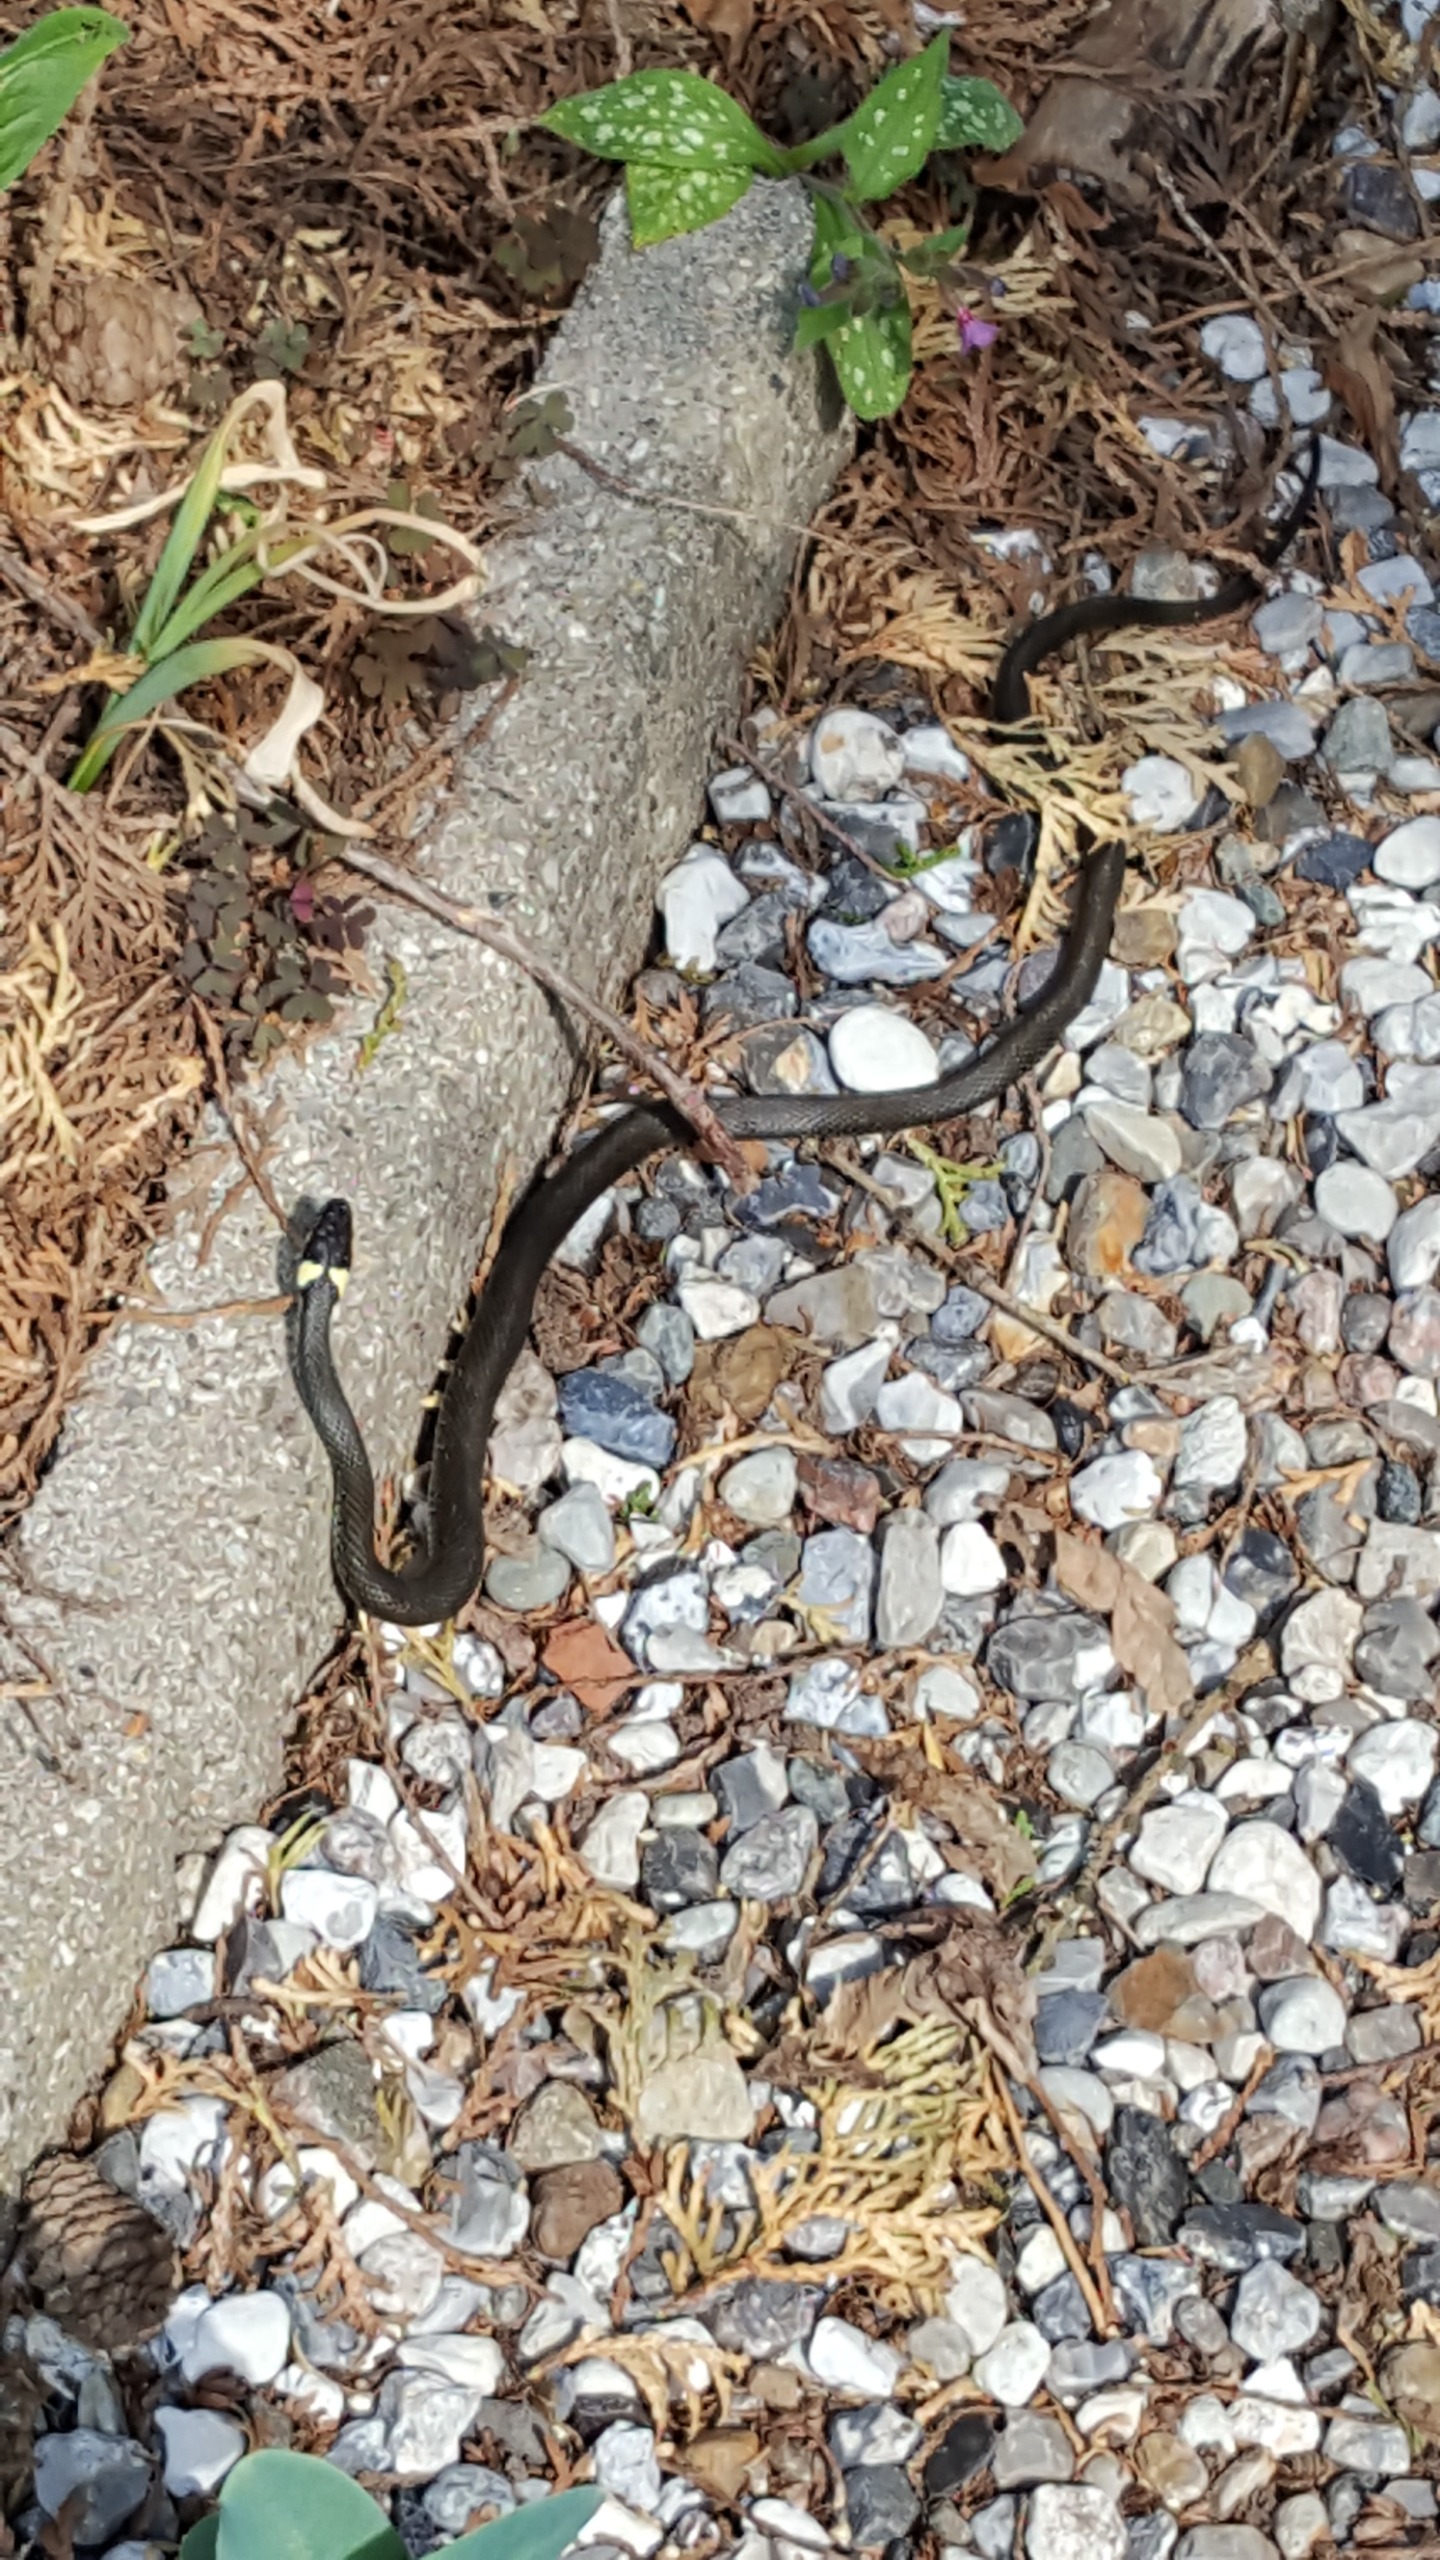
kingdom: Animalia
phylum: Chordata
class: Squamata
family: Colubridae
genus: Natrix
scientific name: Natrix natrix
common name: Snog
